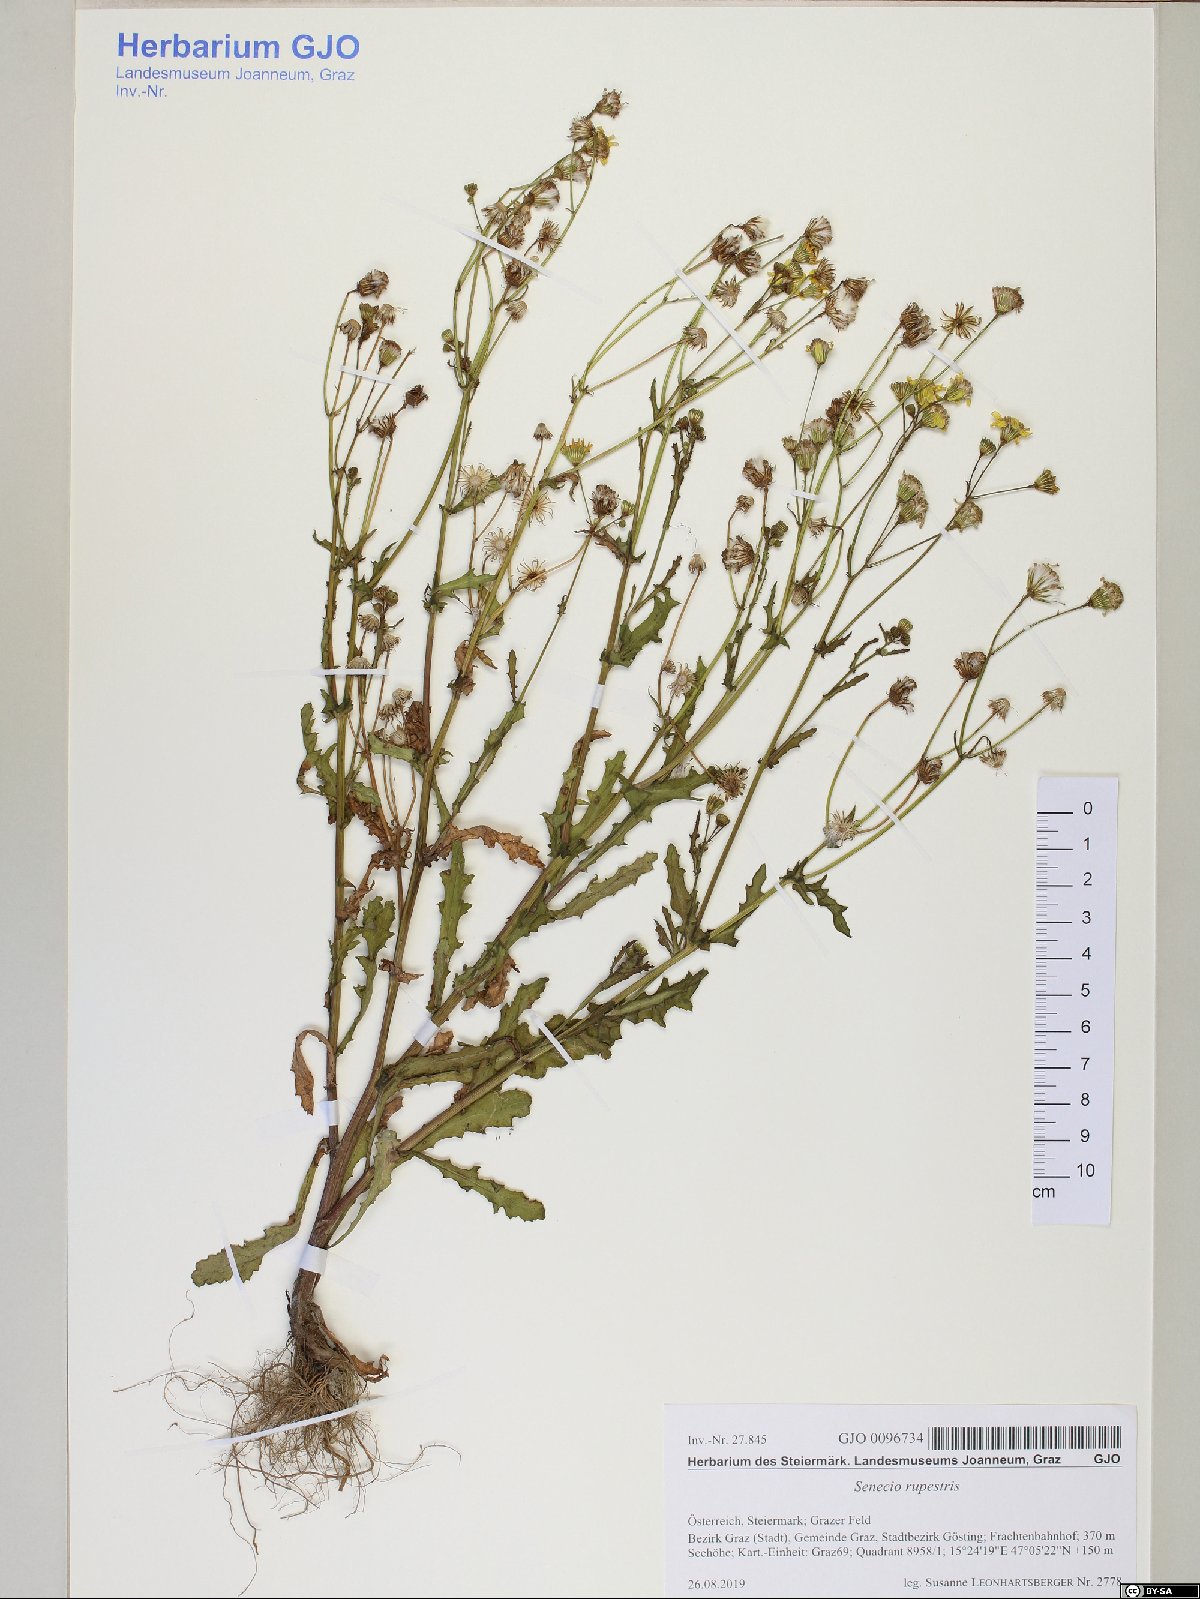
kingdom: Plantae
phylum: Tracheophyta
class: Magnoliopsida
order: Asterales
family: Asteraceae
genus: Senecio
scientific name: Senecio vernalis
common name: Eastern groundsel
